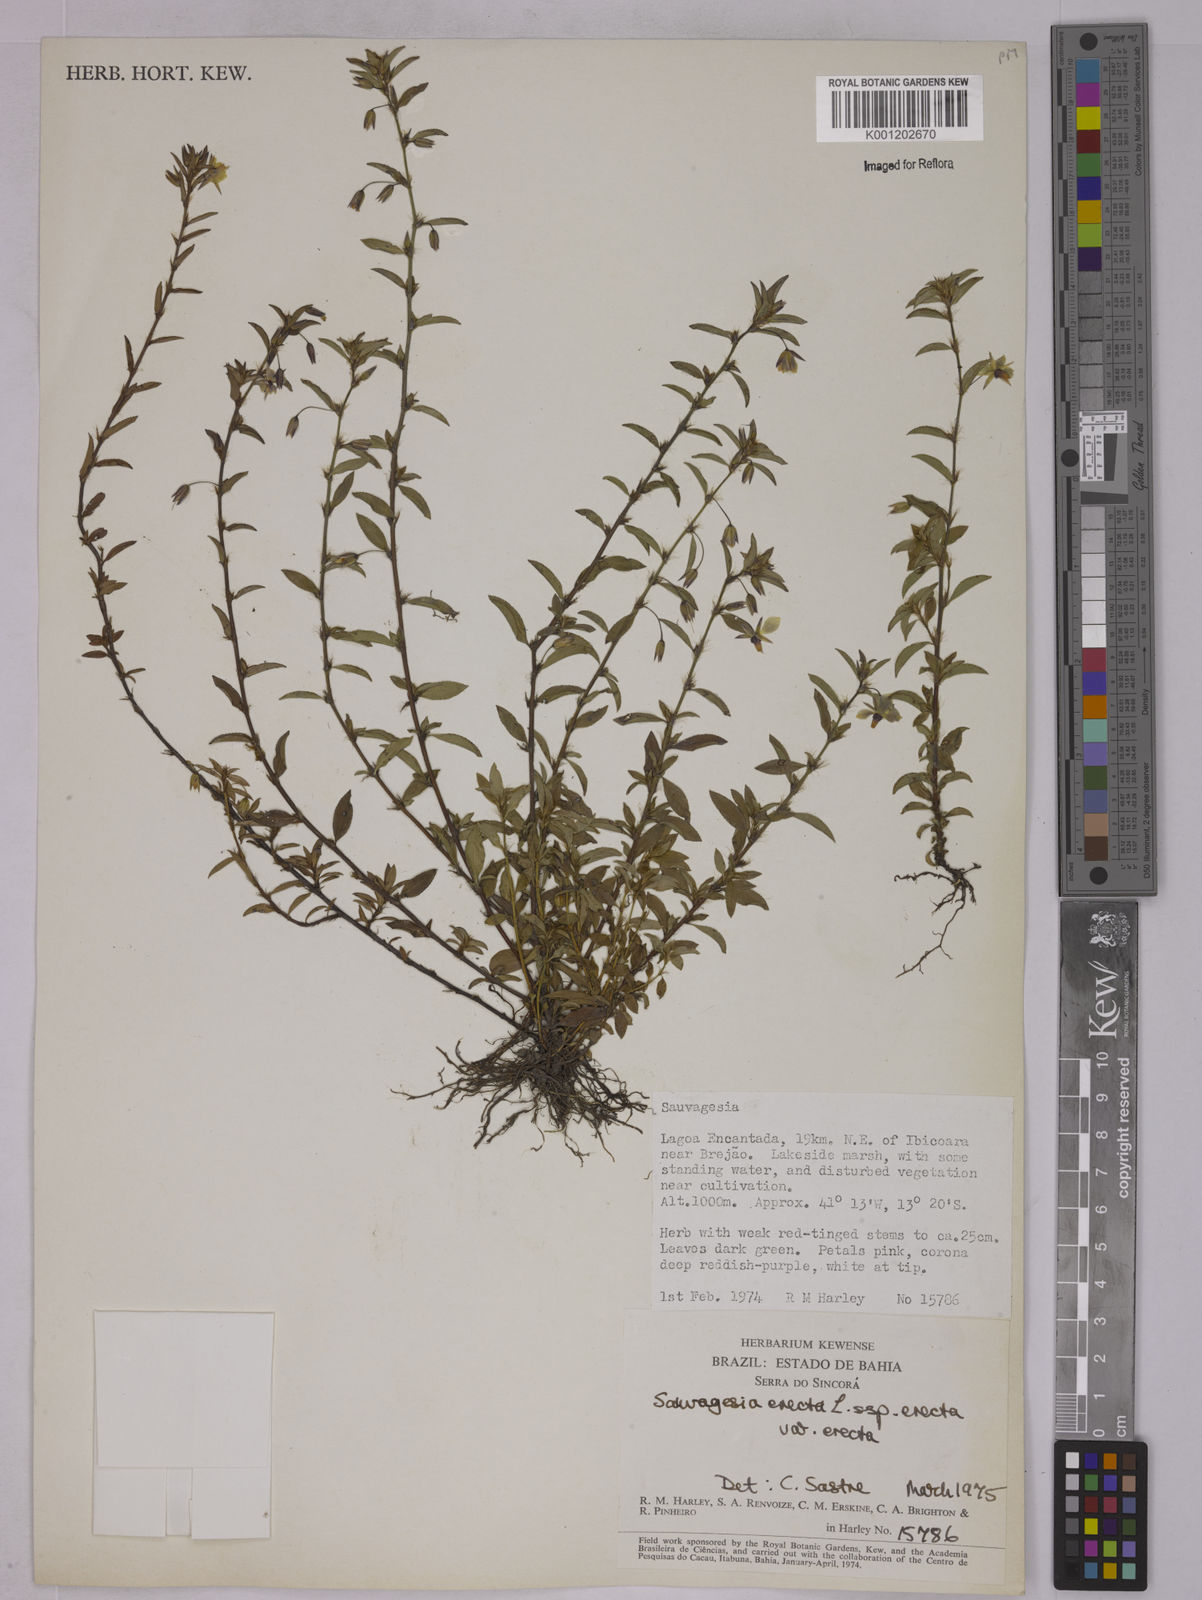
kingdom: Plantae
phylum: Tracheophyta
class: Magnoliopsida
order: Malpighiales
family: Ochnaceae
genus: Sauvagesia
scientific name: Sauvagesia erecta
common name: Creole tea
